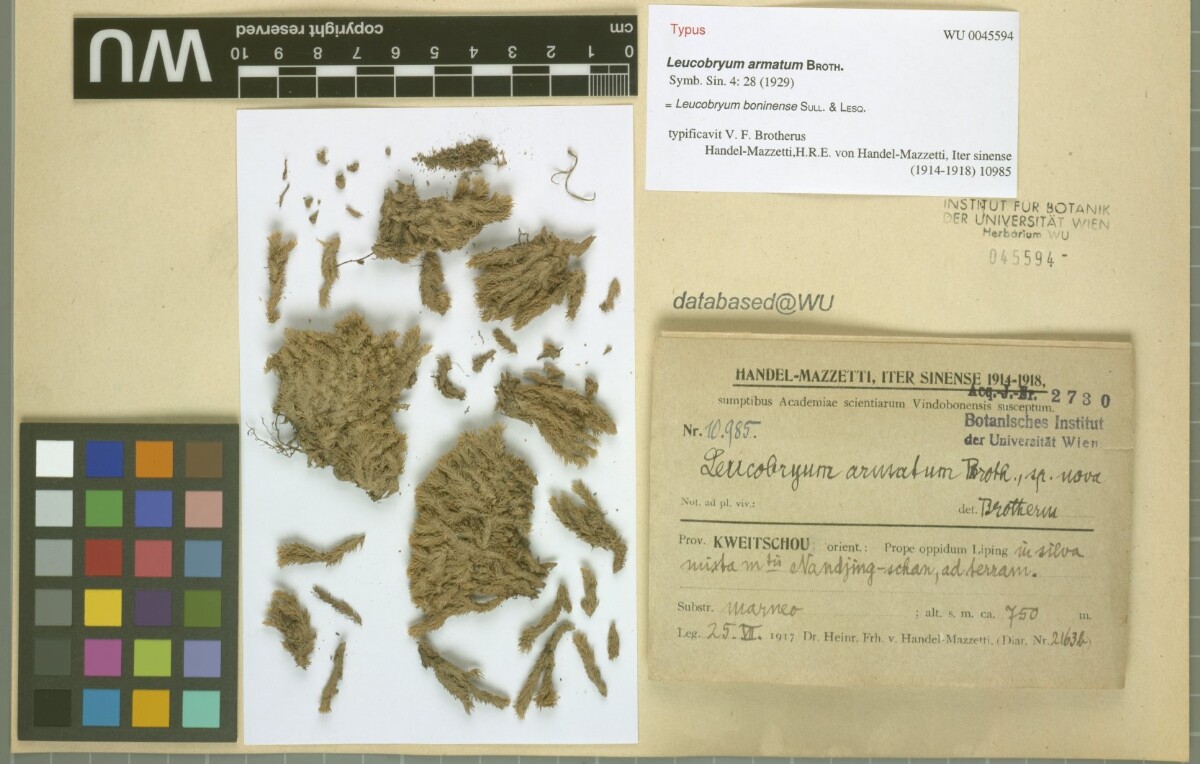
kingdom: Plantae
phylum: Bryophyta
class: Bryopsida
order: Dicranales
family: Leucobryaceae
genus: Leucobryum
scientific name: Leucobryum scaberulum
